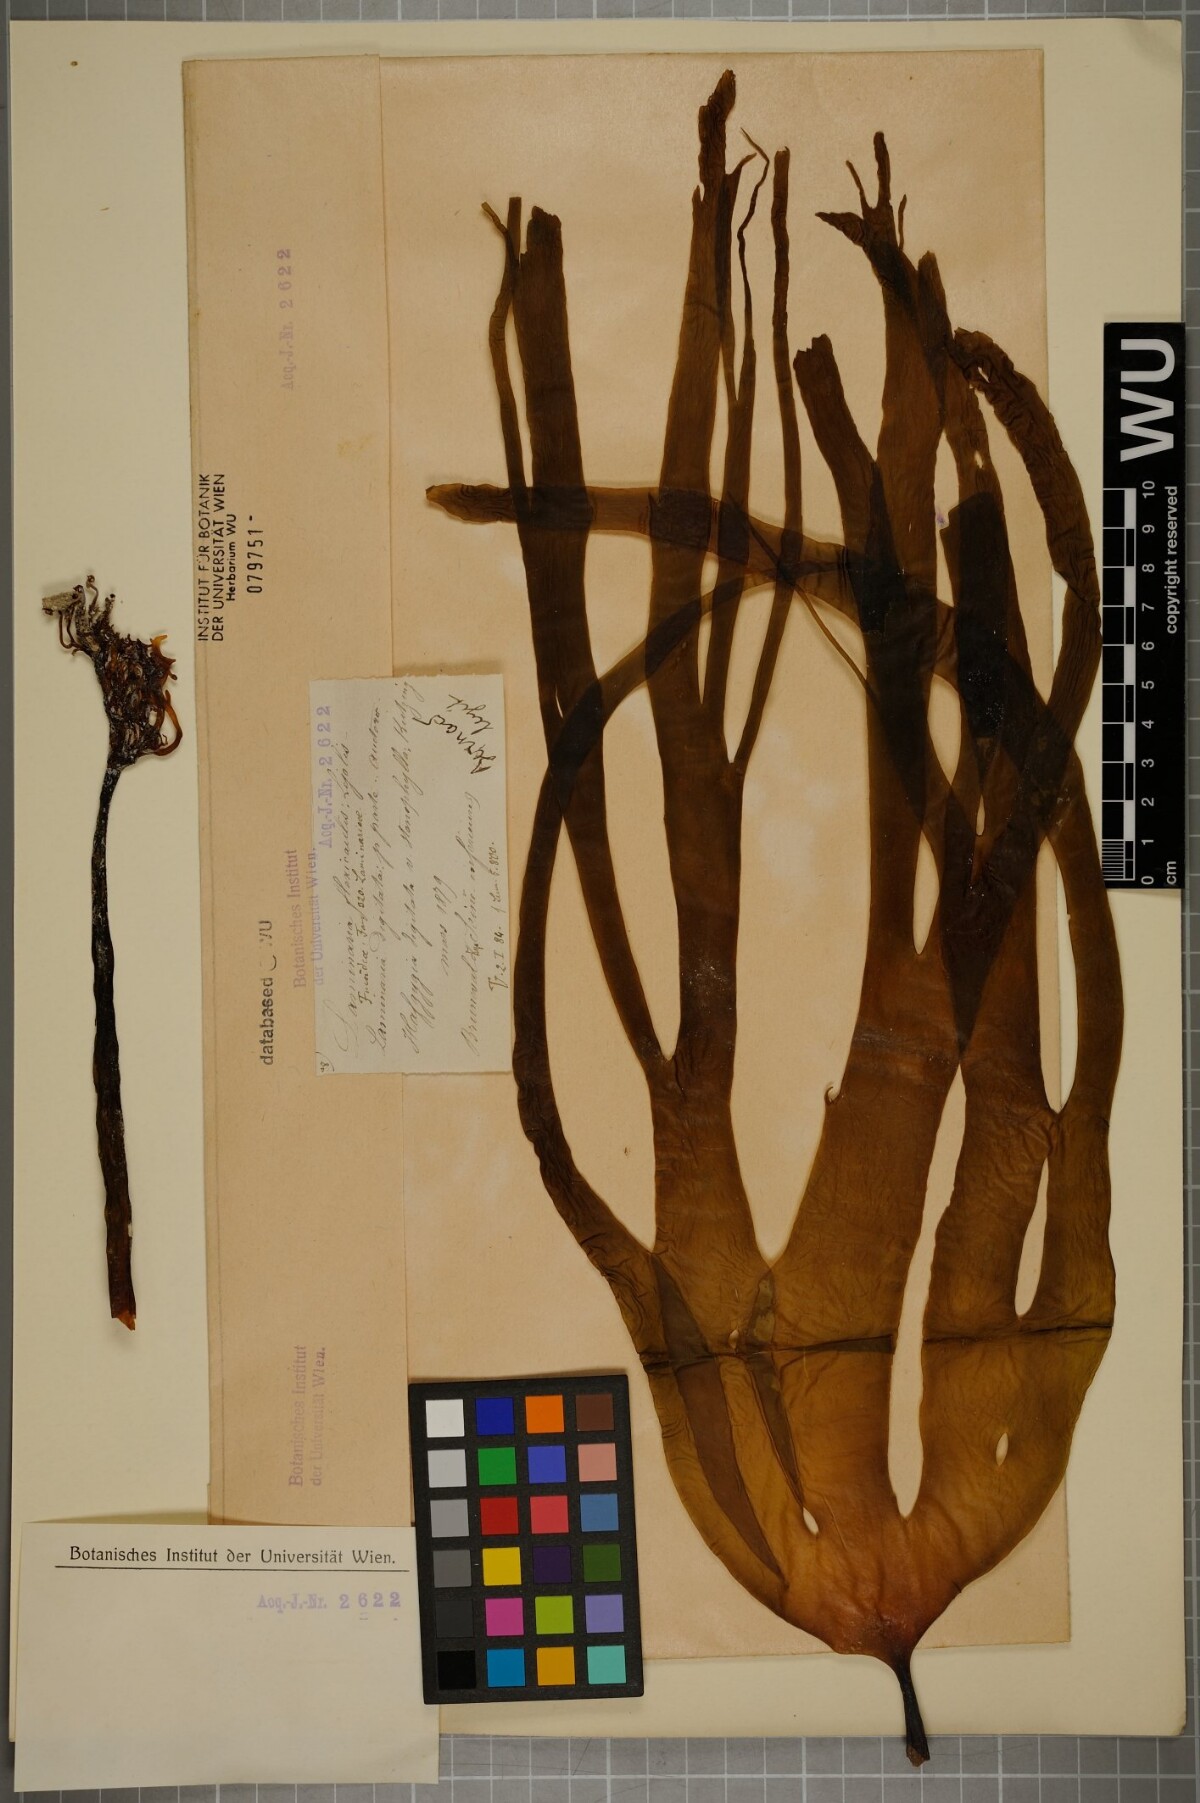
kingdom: Chromista
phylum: Ochrophyta
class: Phaeophyceae
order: Laminariales
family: Laminariaceae
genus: Laminaria
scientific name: Laminaria digitata
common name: Oarweed
